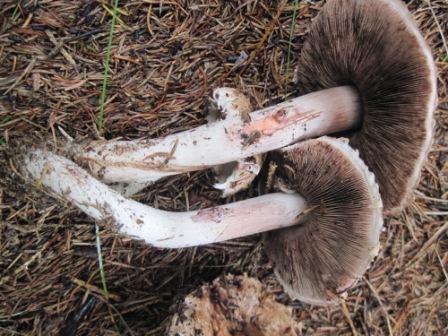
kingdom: Fungi
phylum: Basidiomycota
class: Agaricomycetes
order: Agaricales
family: Agaricaceae
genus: Agaricus
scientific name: Agaricus sylvaticus
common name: lille blod-champignon
